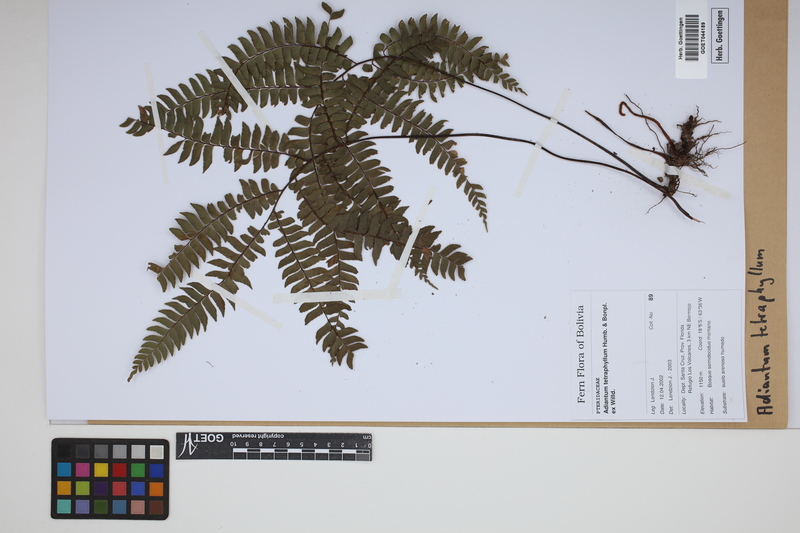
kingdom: Plantae
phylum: Tracheophyta
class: Polypodiopsida
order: Polypodiales
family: Pteridaceae
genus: Adiantum
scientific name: Adiantum tetraphyllum
